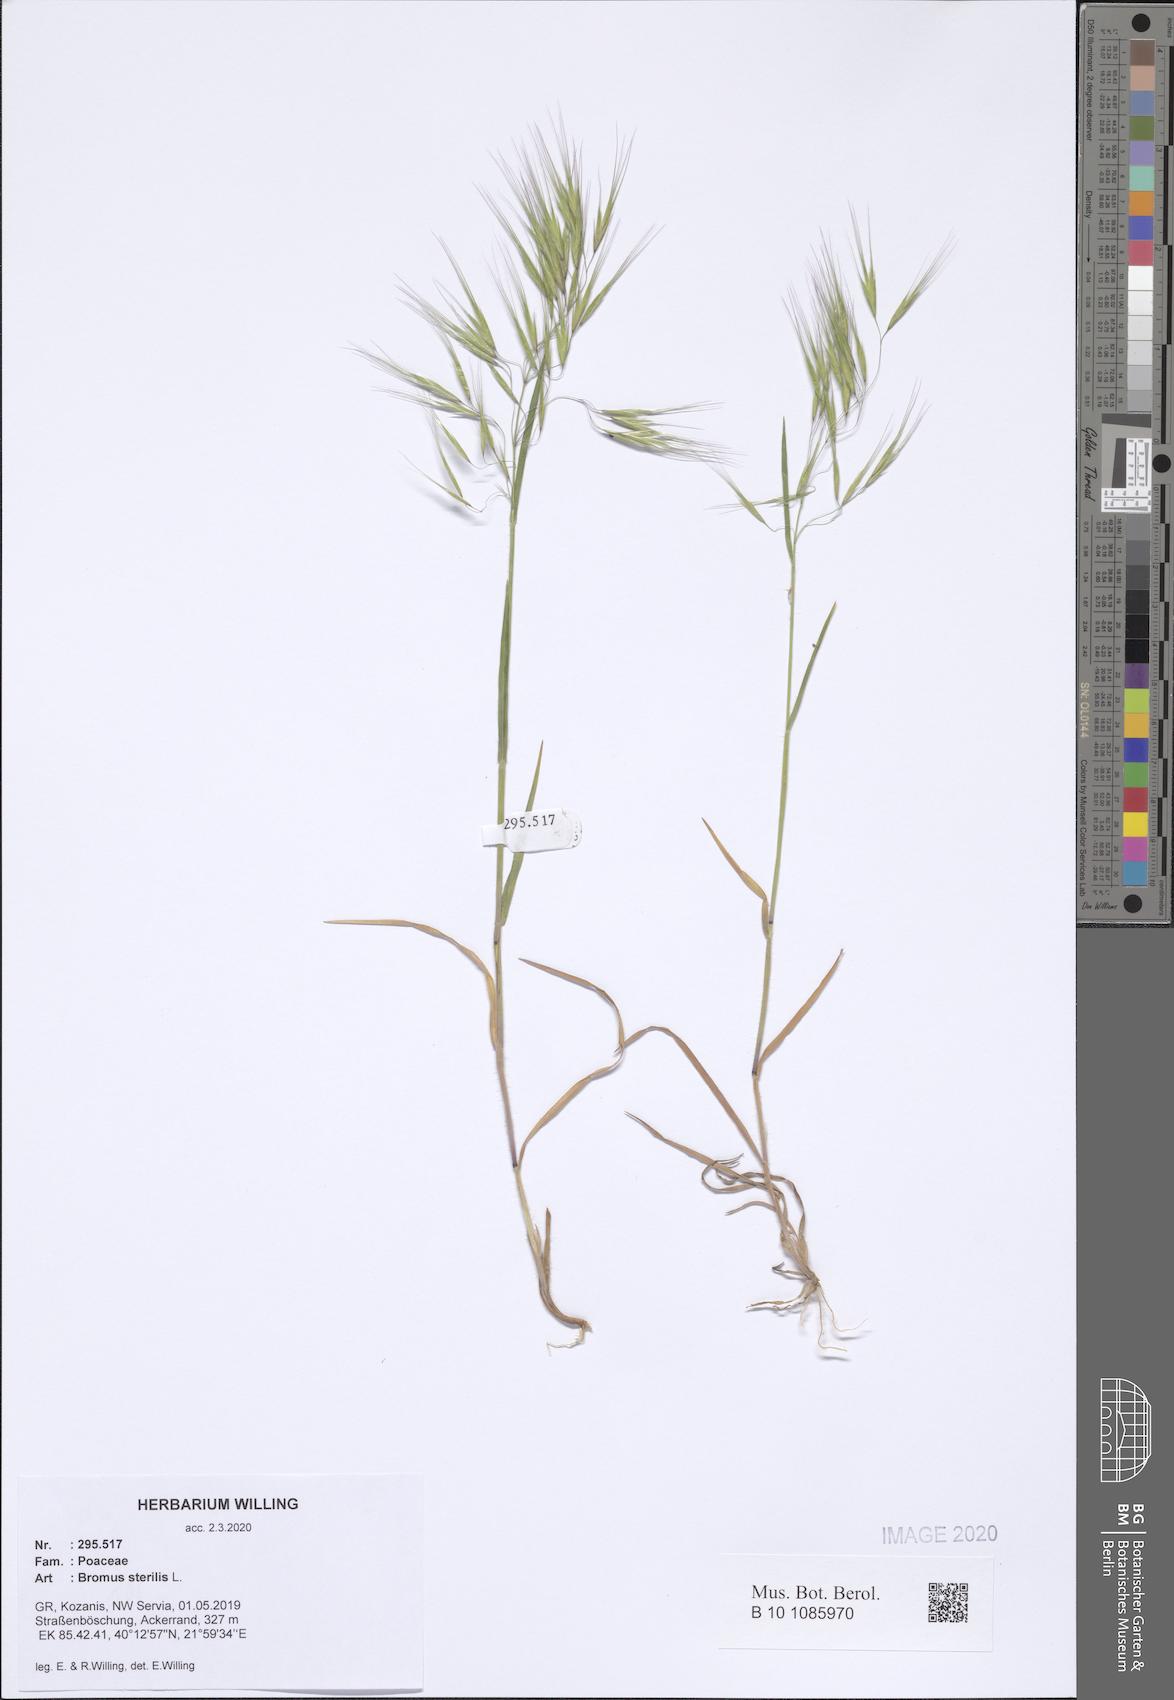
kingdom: Plantae
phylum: Tracheophyta
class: Liliopsida
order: Poales
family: Poaceae
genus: Bromus
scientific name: Bromus sterilis
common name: Poverty brome
